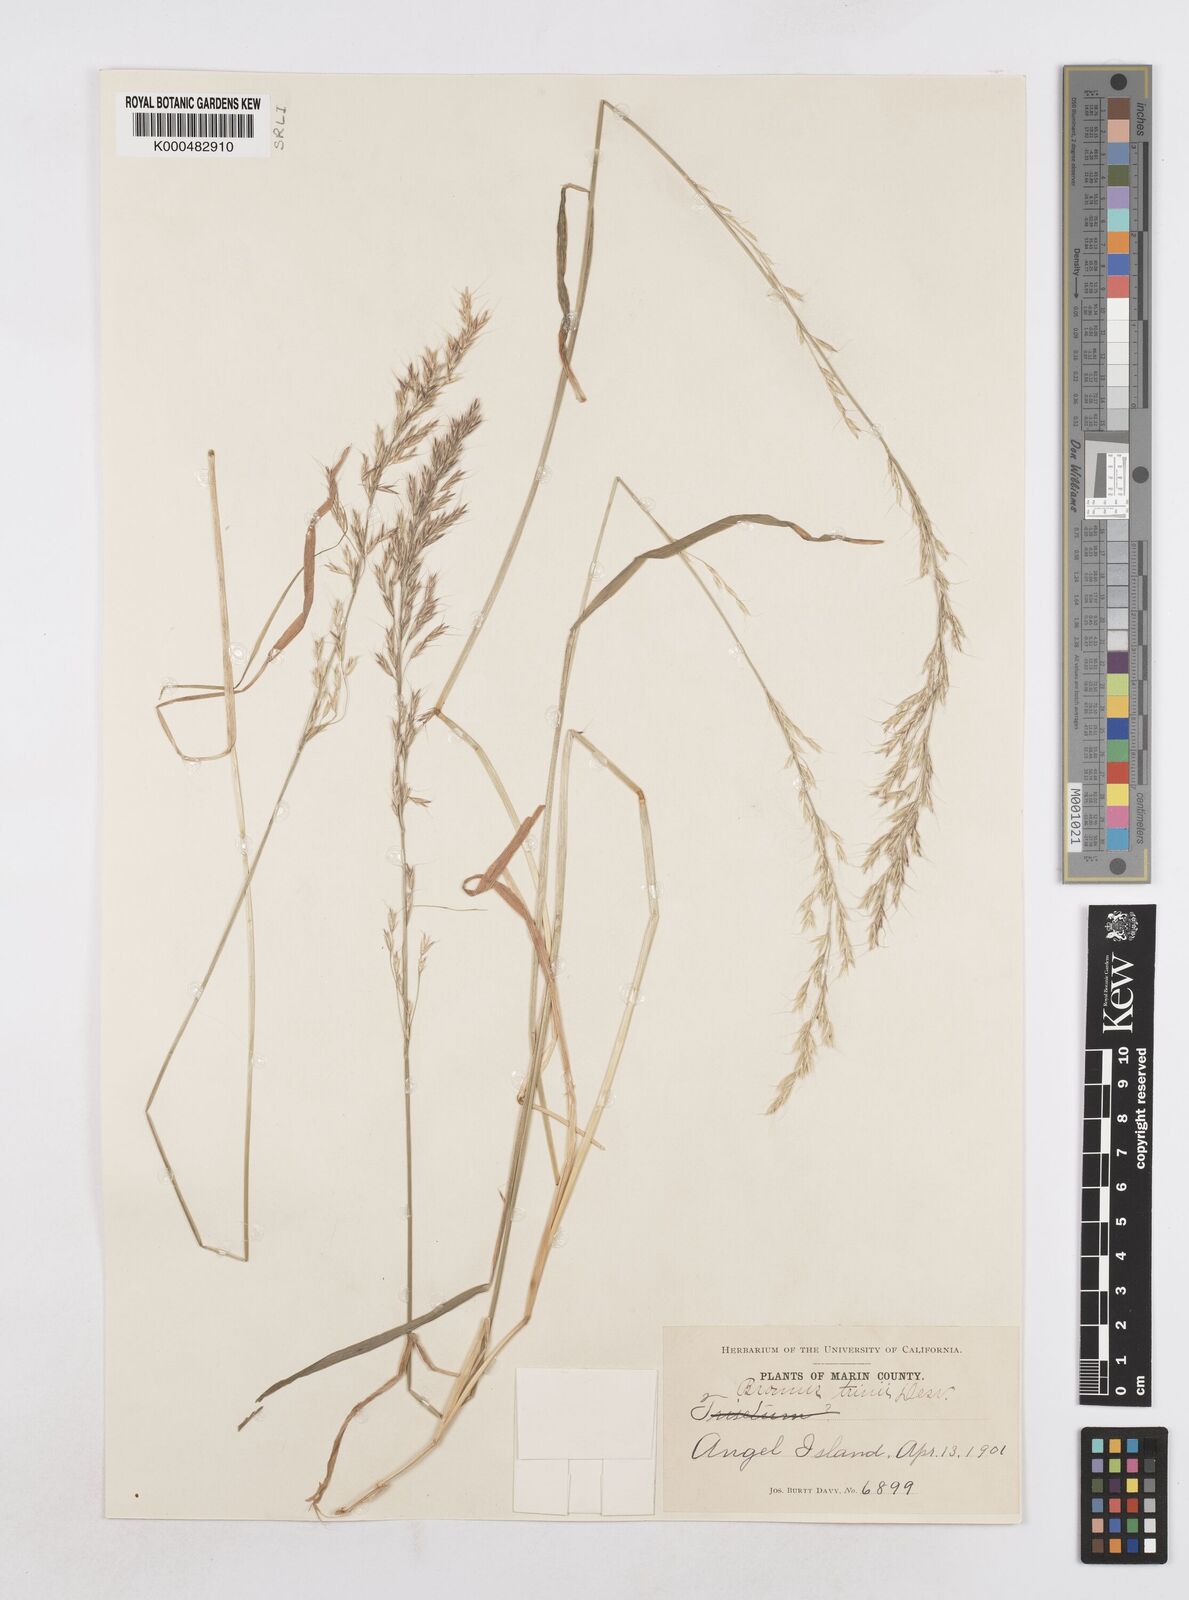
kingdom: Plantae
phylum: Tracheophyta
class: Liliopsida
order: Poales
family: Poaceae
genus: Graphephorum
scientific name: Graphephorum canescens
